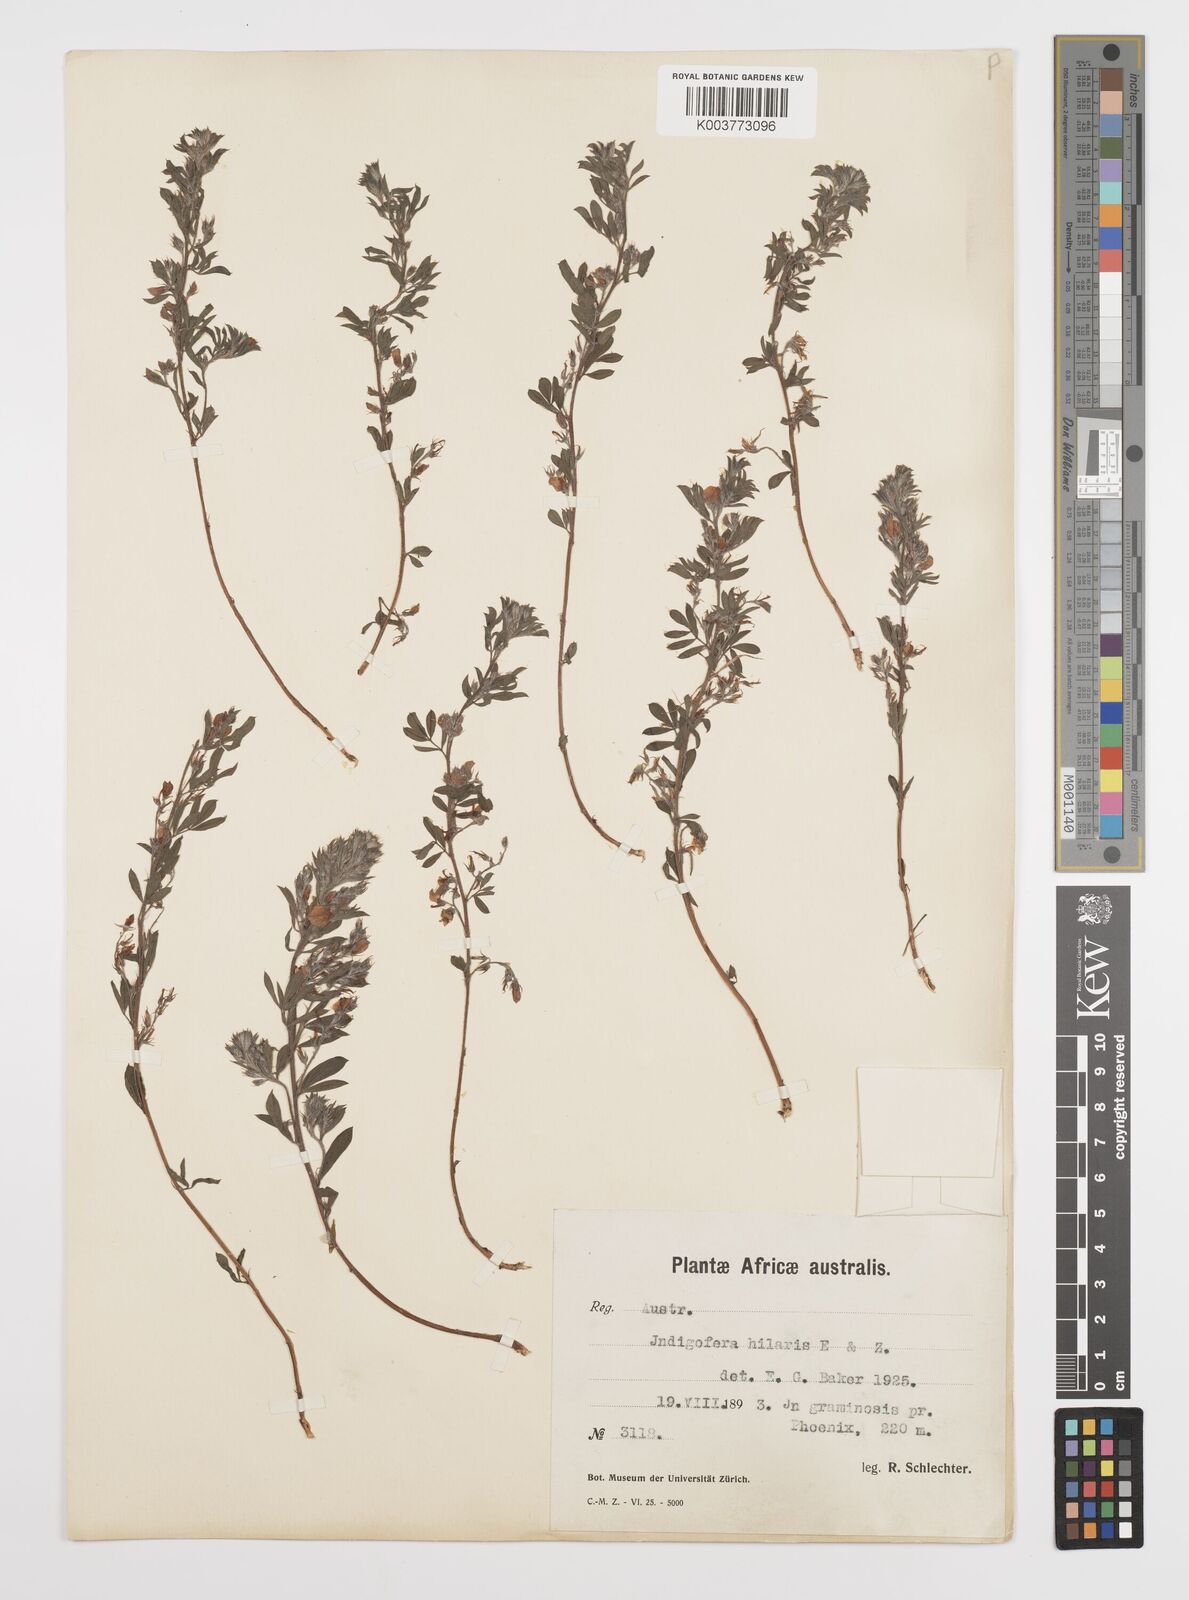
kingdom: Plantae
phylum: Tracheophyta
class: Magnoliopsida
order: Fabales
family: Fabaceae
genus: Indigofera
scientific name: Indigofera
